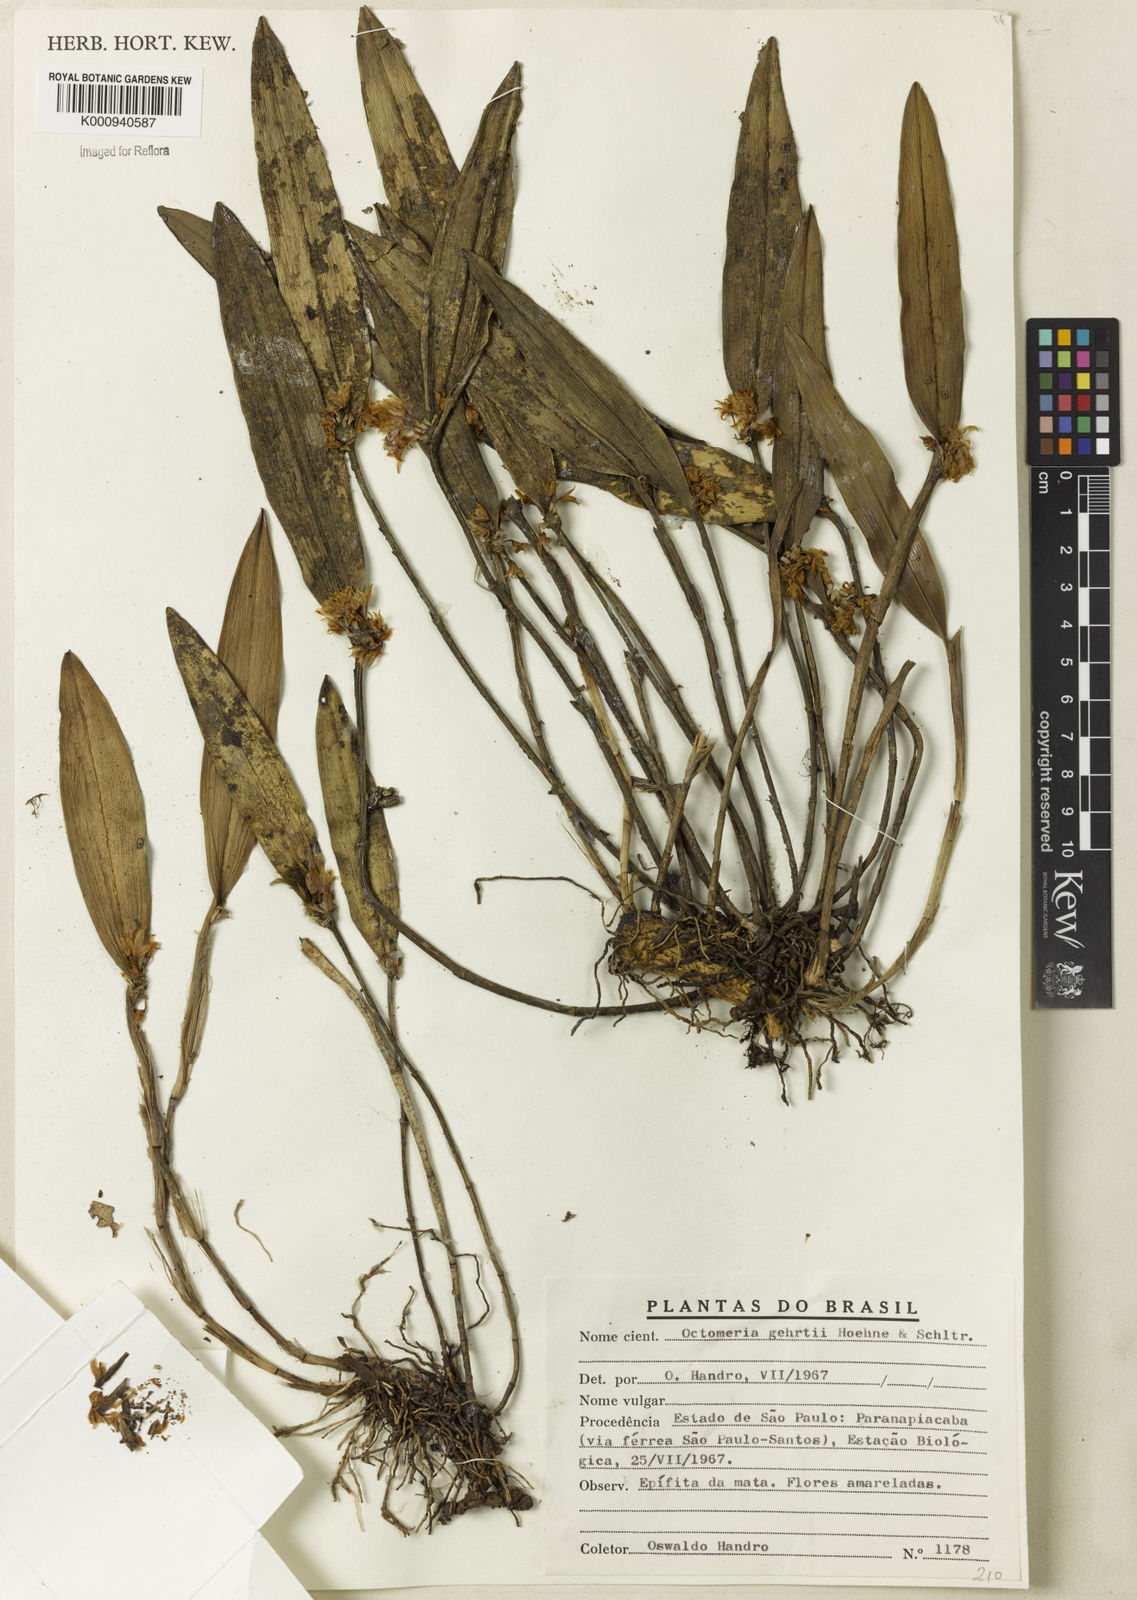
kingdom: Plantae
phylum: Tracheophyta
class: Liliopsida
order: Asparagales
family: Orchidaceae
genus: Octomeria
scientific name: Octomeria gehrtii
